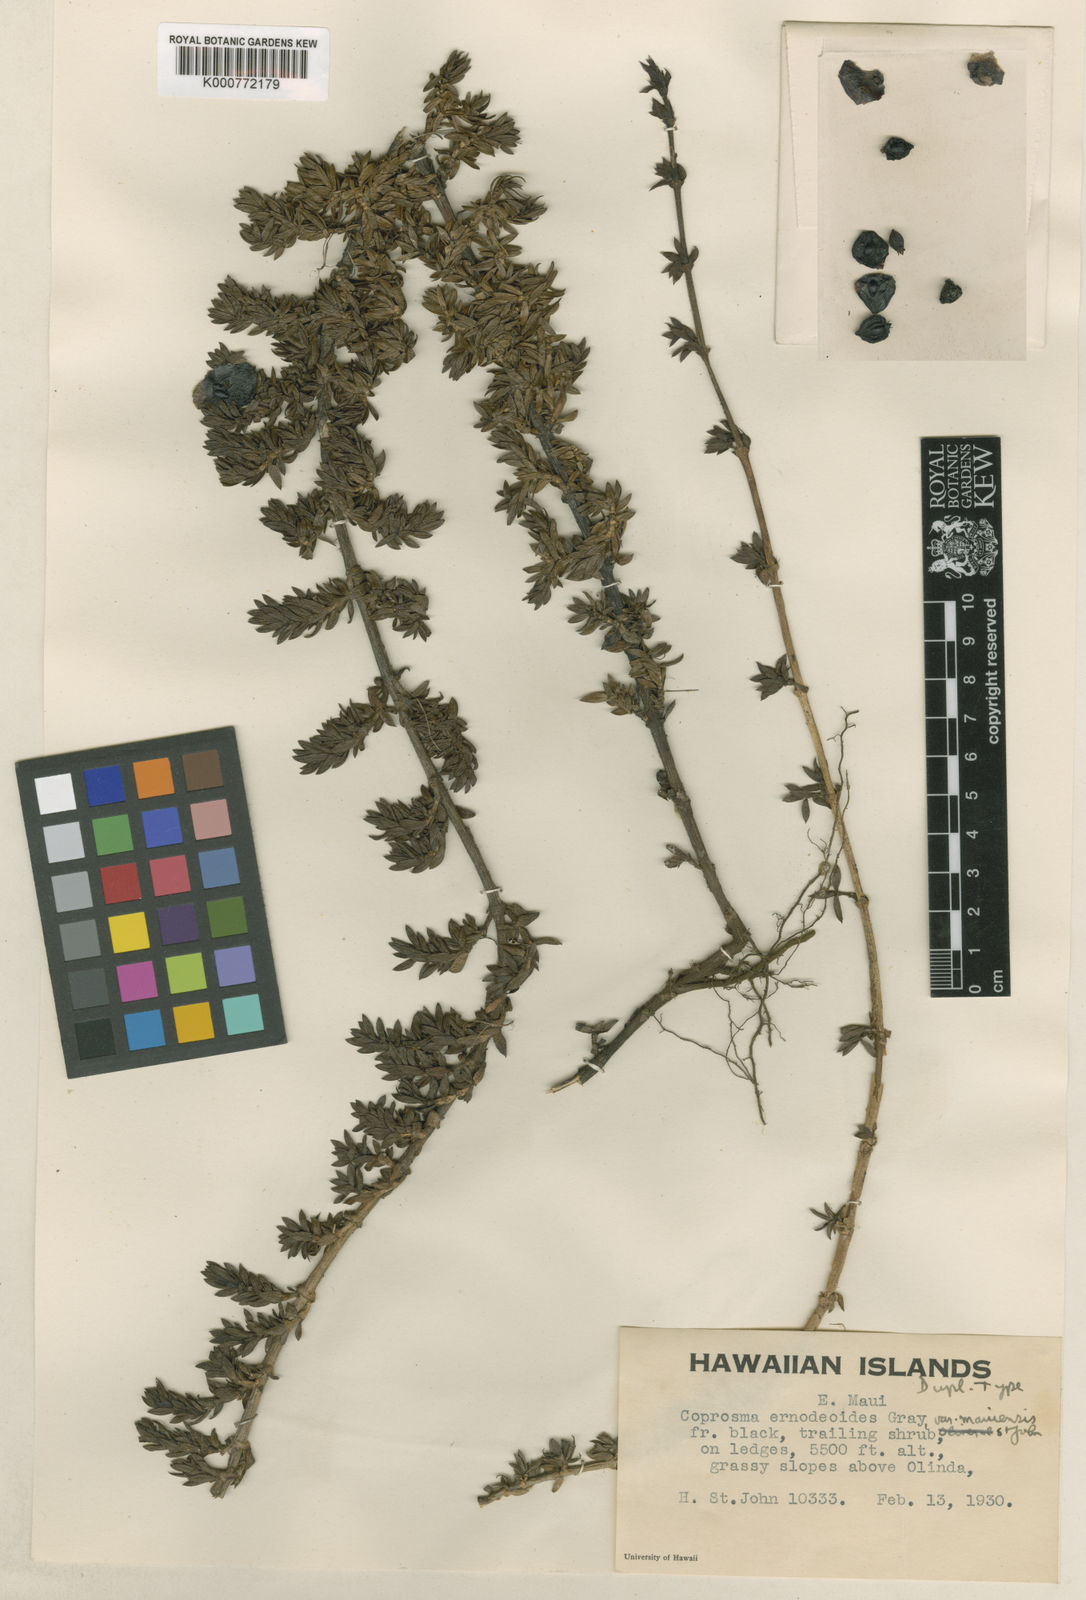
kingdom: Plantae
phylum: Tracheophyta
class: Magnoliopsida
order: Gentianales
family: Rubiaceae
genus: Coprosma
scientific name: Coprosma ernodeoides
